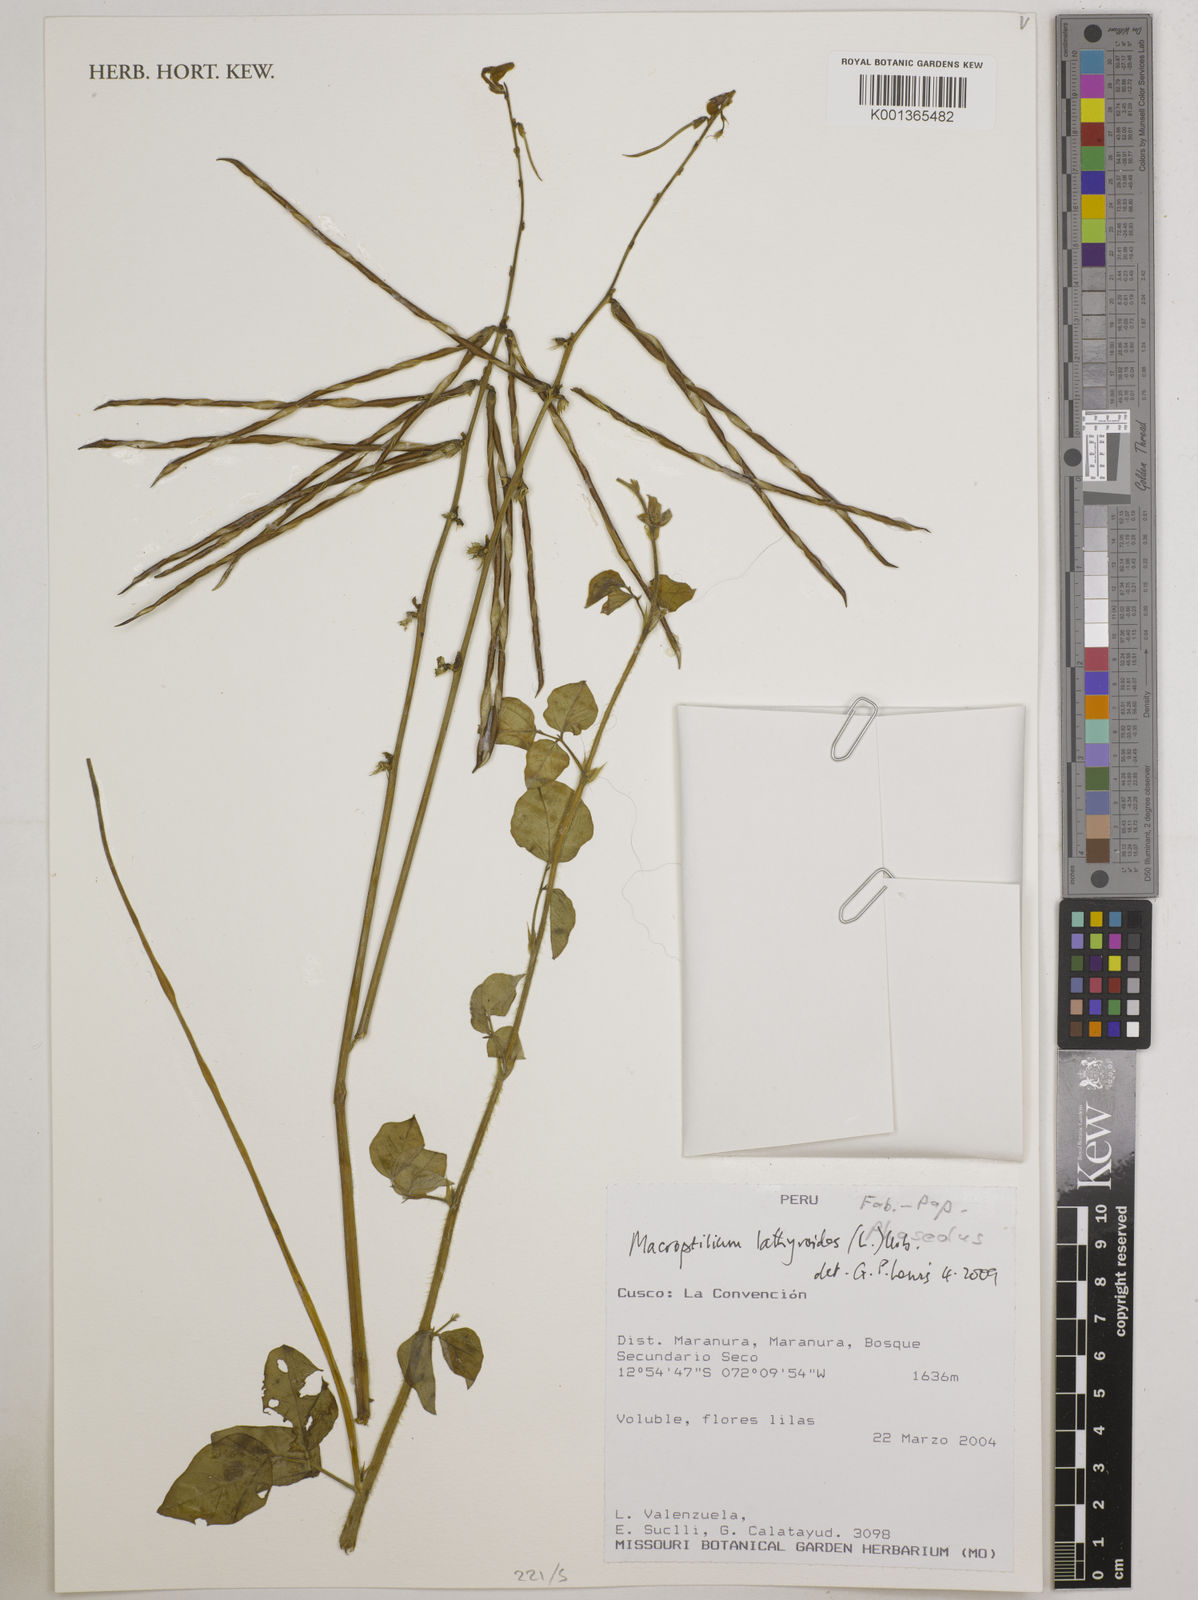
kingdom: Plantae
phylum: Tracheophyta
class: Magnoliopsida
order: Fabales
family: Fabaceae
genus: Macroptilium
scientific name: Macroptilium lathyroides
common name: Wild bushbean
